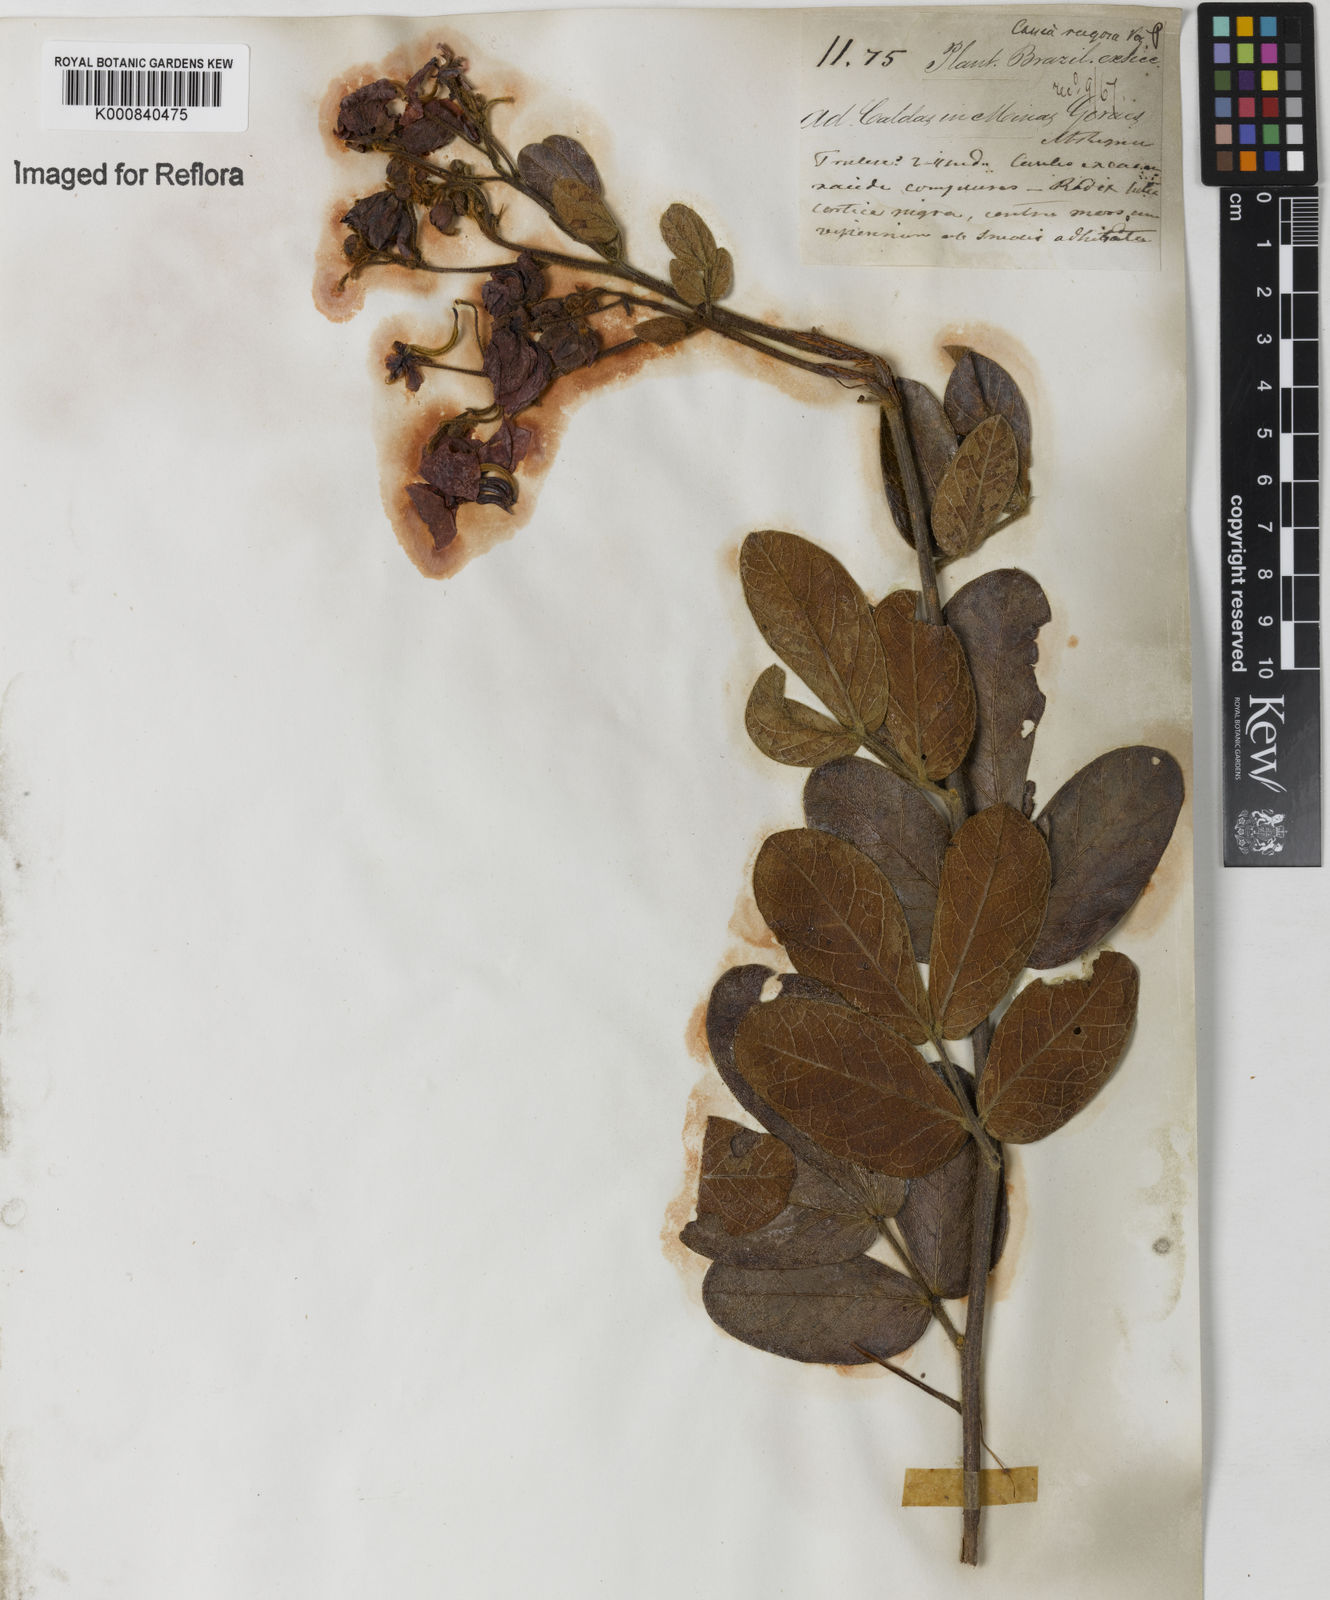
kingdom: Plantae
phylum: Tracheophyta
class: Magnoliopsida
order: Fabales
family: Fabaceae
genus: Senna
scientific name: Senna rugosa
